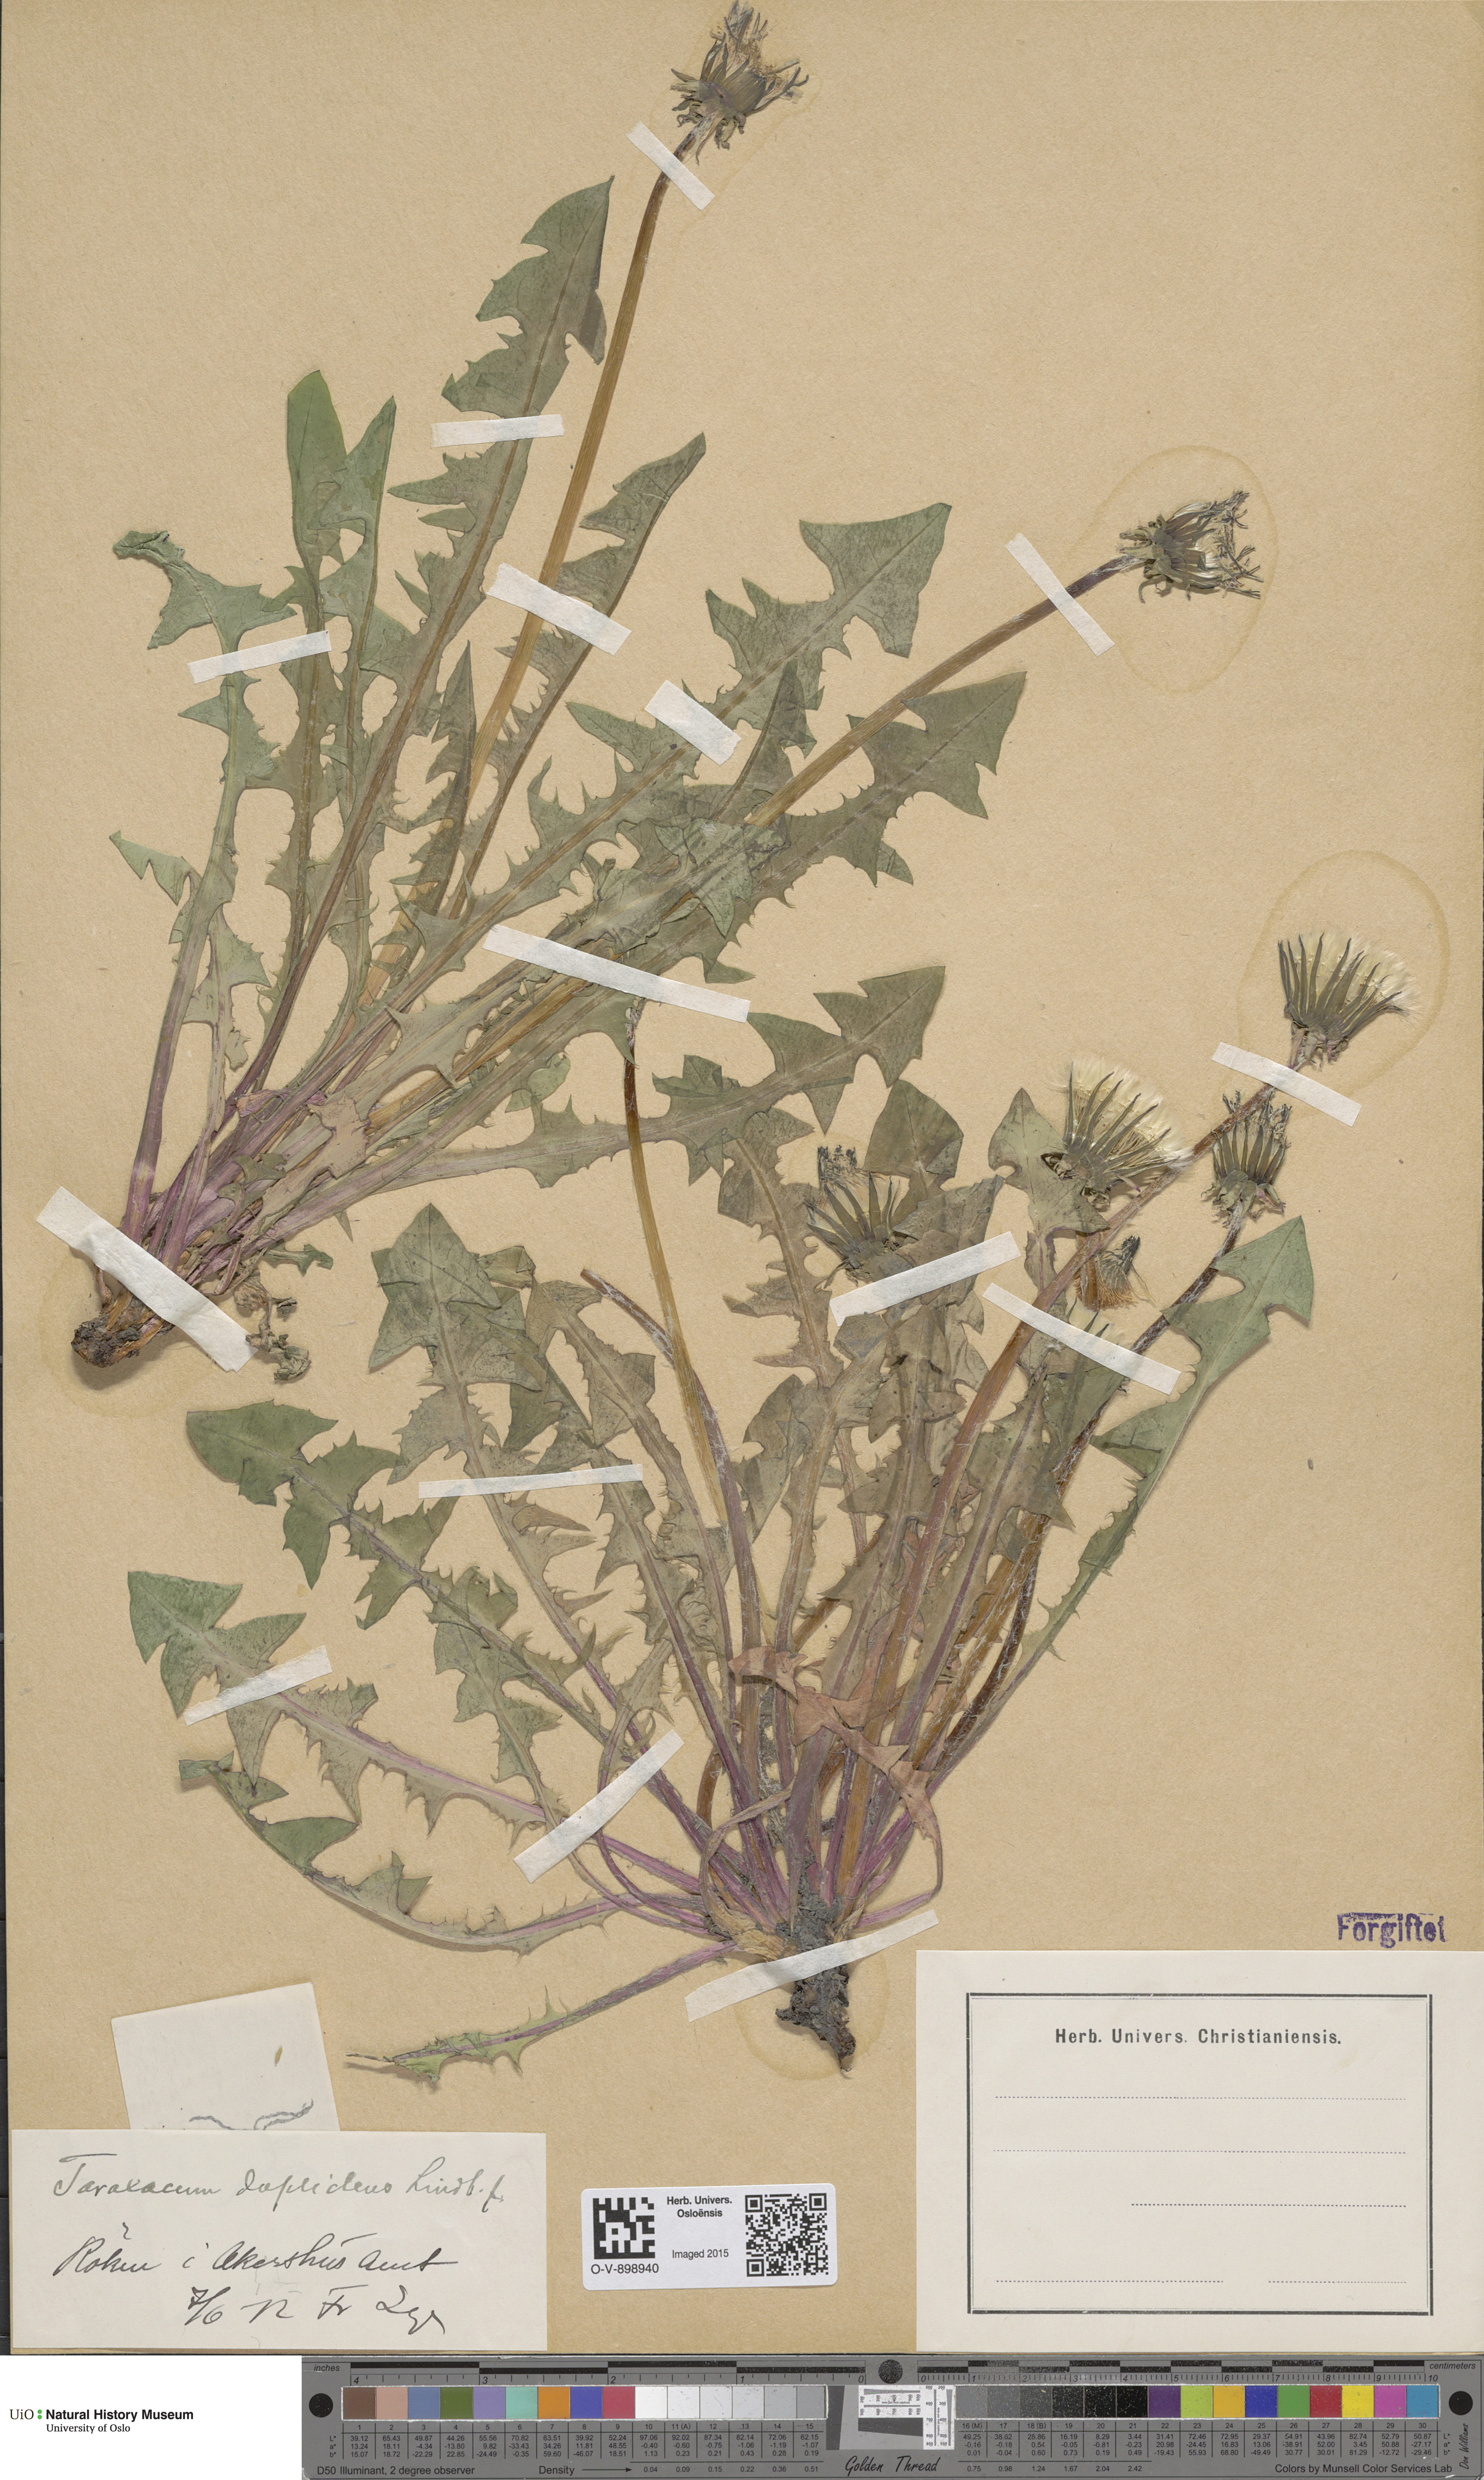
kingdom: Plantae
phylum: Tracheophyta
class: Magnoliopsida
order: Asterales
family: Asteraceae
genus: Taraxacum
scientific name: Taraxacum ostenfeldii
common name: Ostenfeld's dandelion
